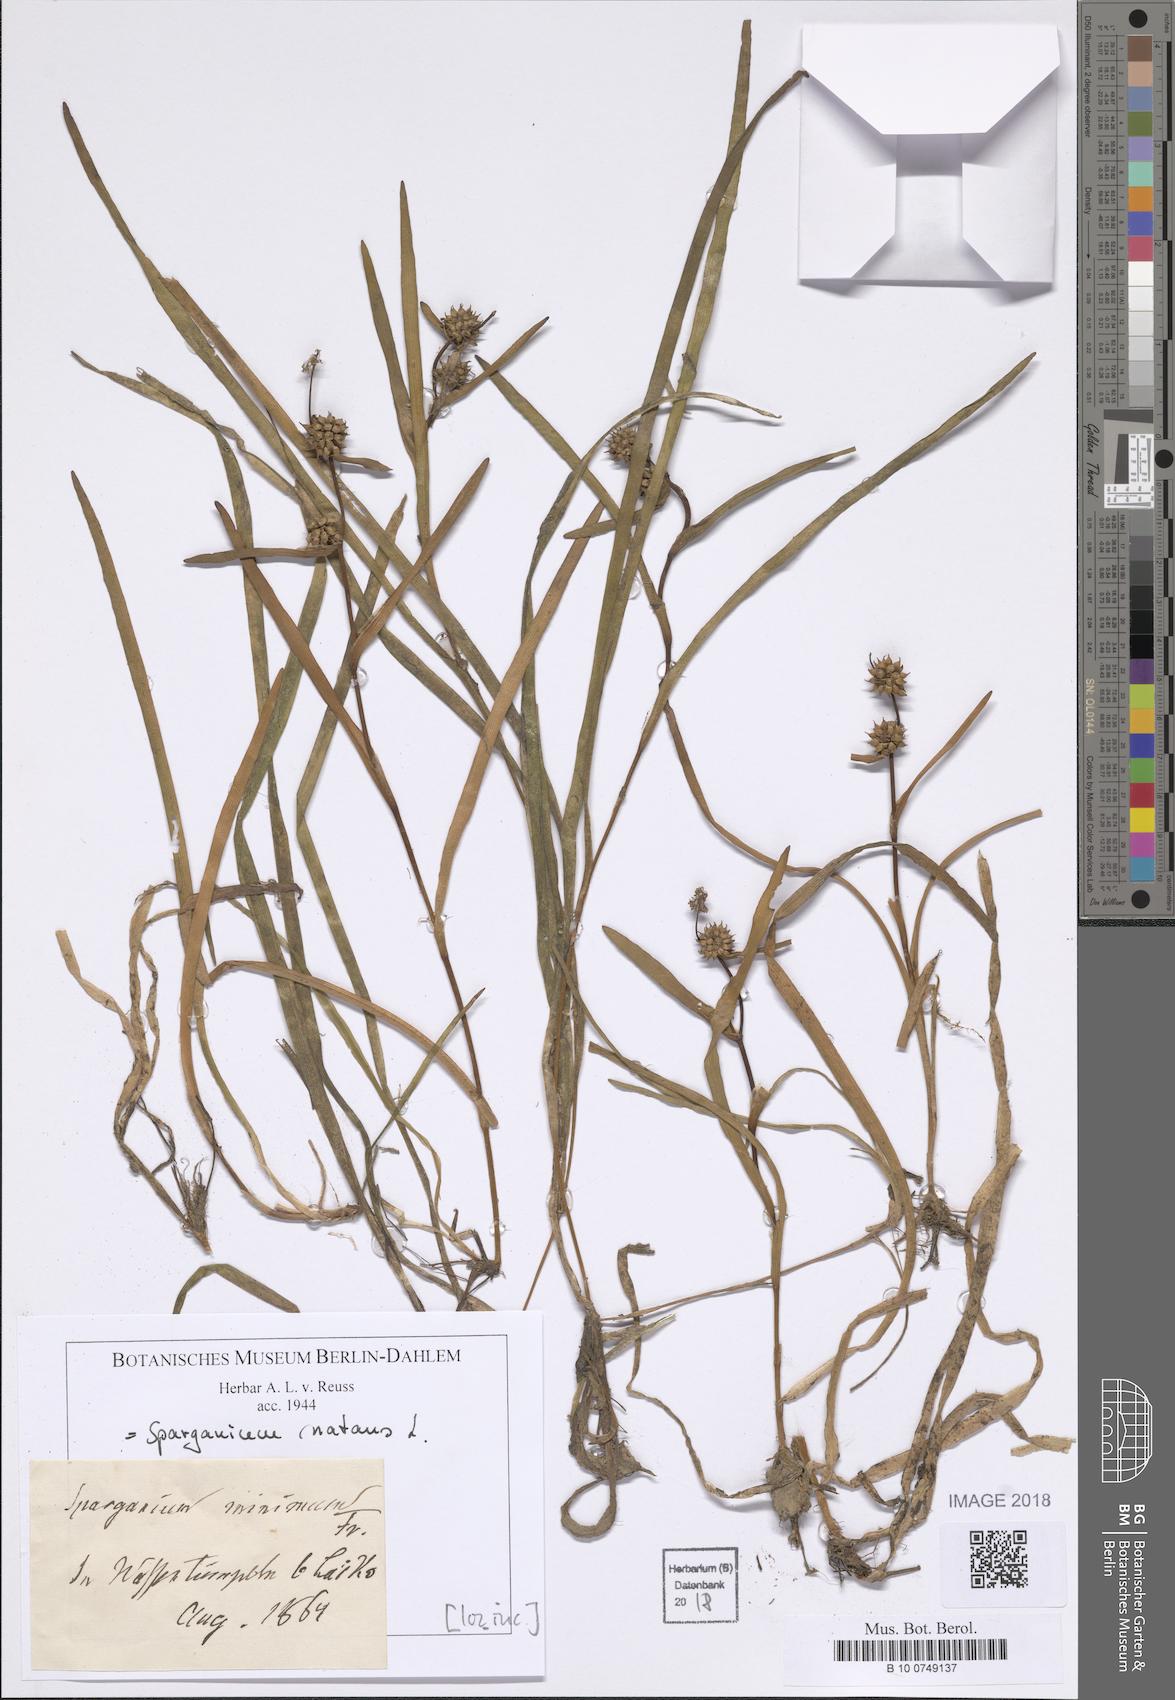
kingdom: Plantae
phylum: Tracheophyta
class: Liliopsida
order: Poales
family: Typhaceae
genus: Sparganium
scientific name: Sparganium natans
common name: Least bur-reed
